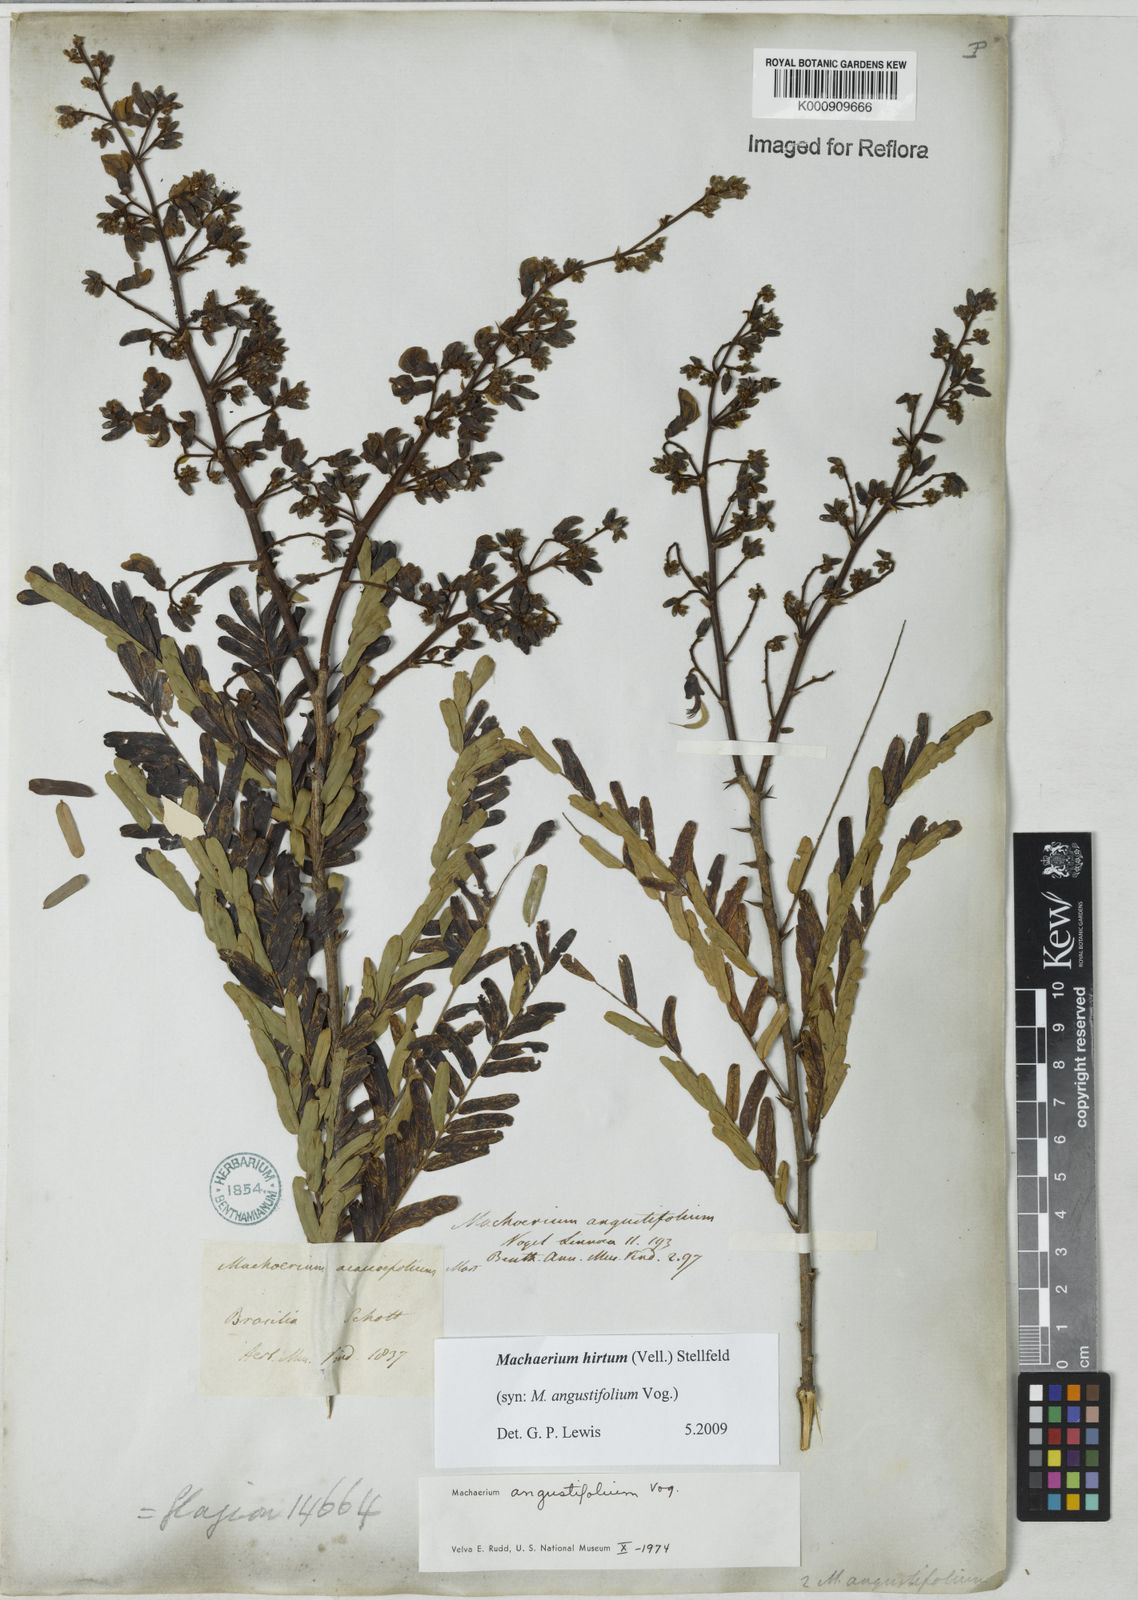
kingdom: Plantae
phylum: Tracheophyta
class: Magnoliopsida
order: Fabales
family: Fabaceae
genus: Machaerium
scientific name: Machaerium hirtum
